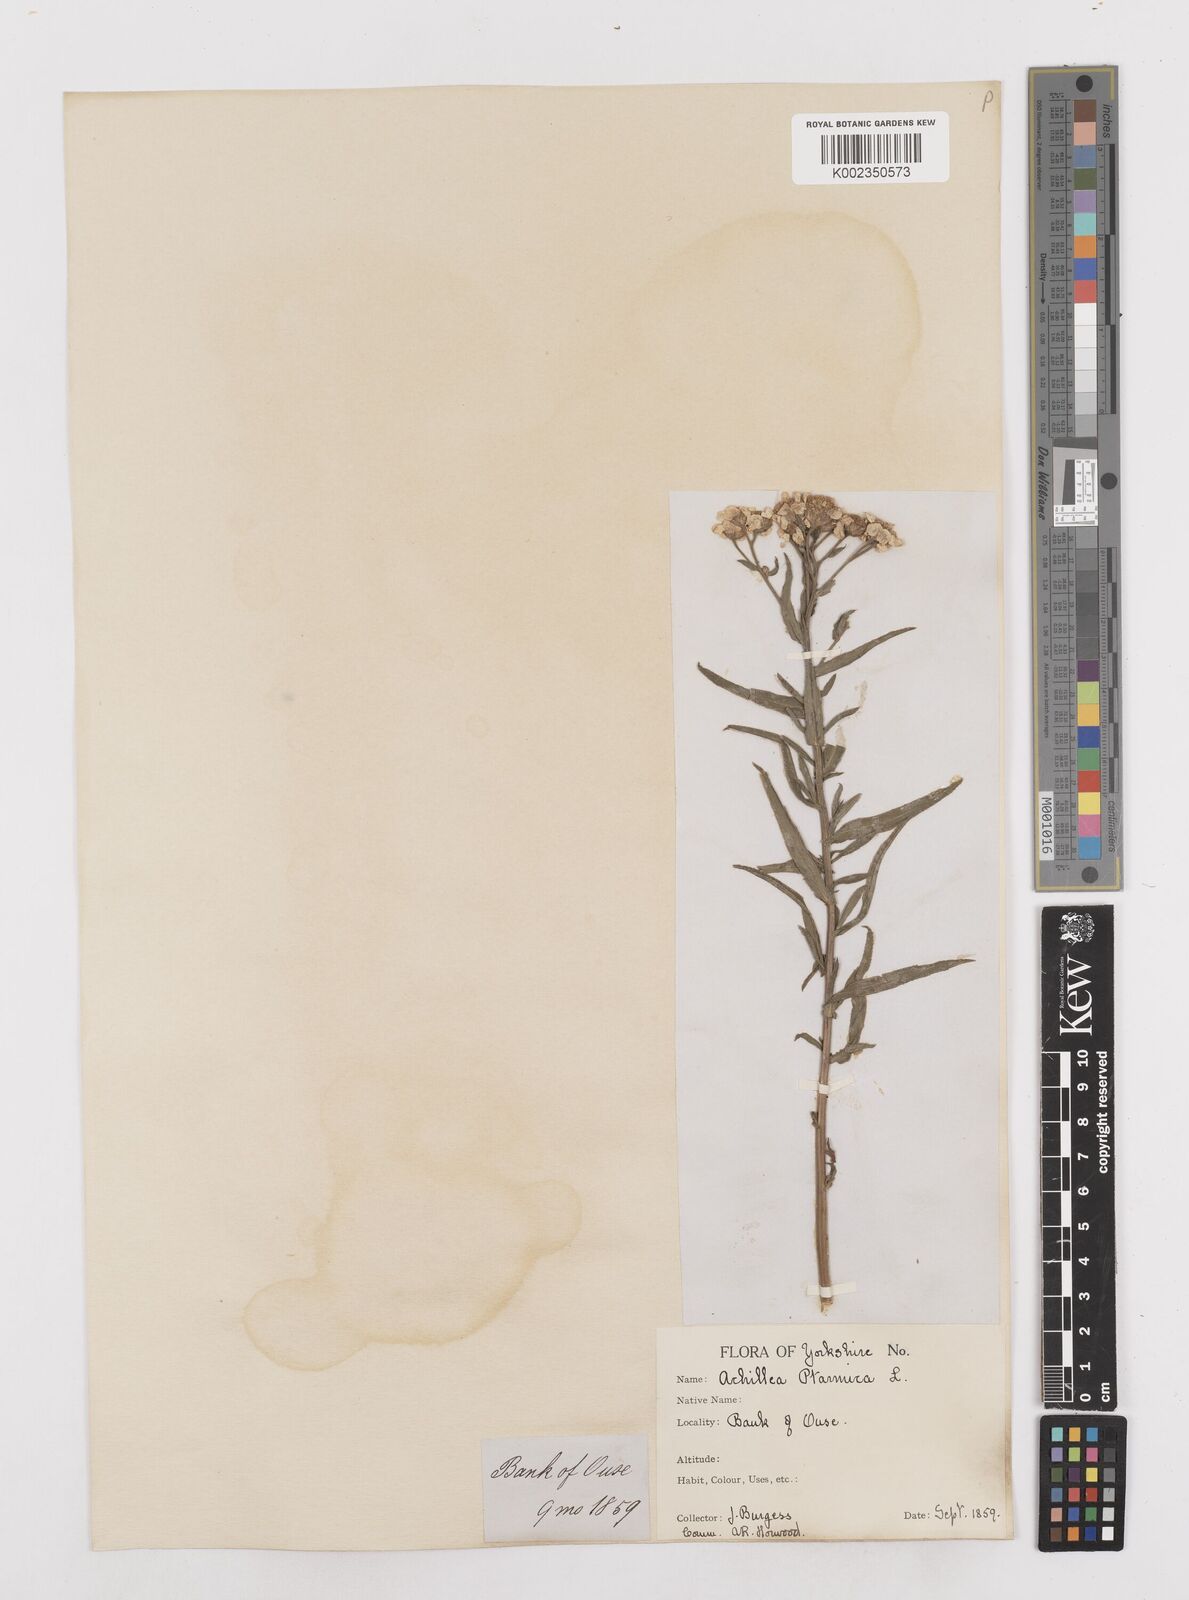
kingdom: Plantae
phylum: Tracheophyta
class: Magnoliopsida
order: Asterales
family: Asteraceae
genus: Achillea
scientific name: Achillea ptarmica
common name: Sneezeweed
